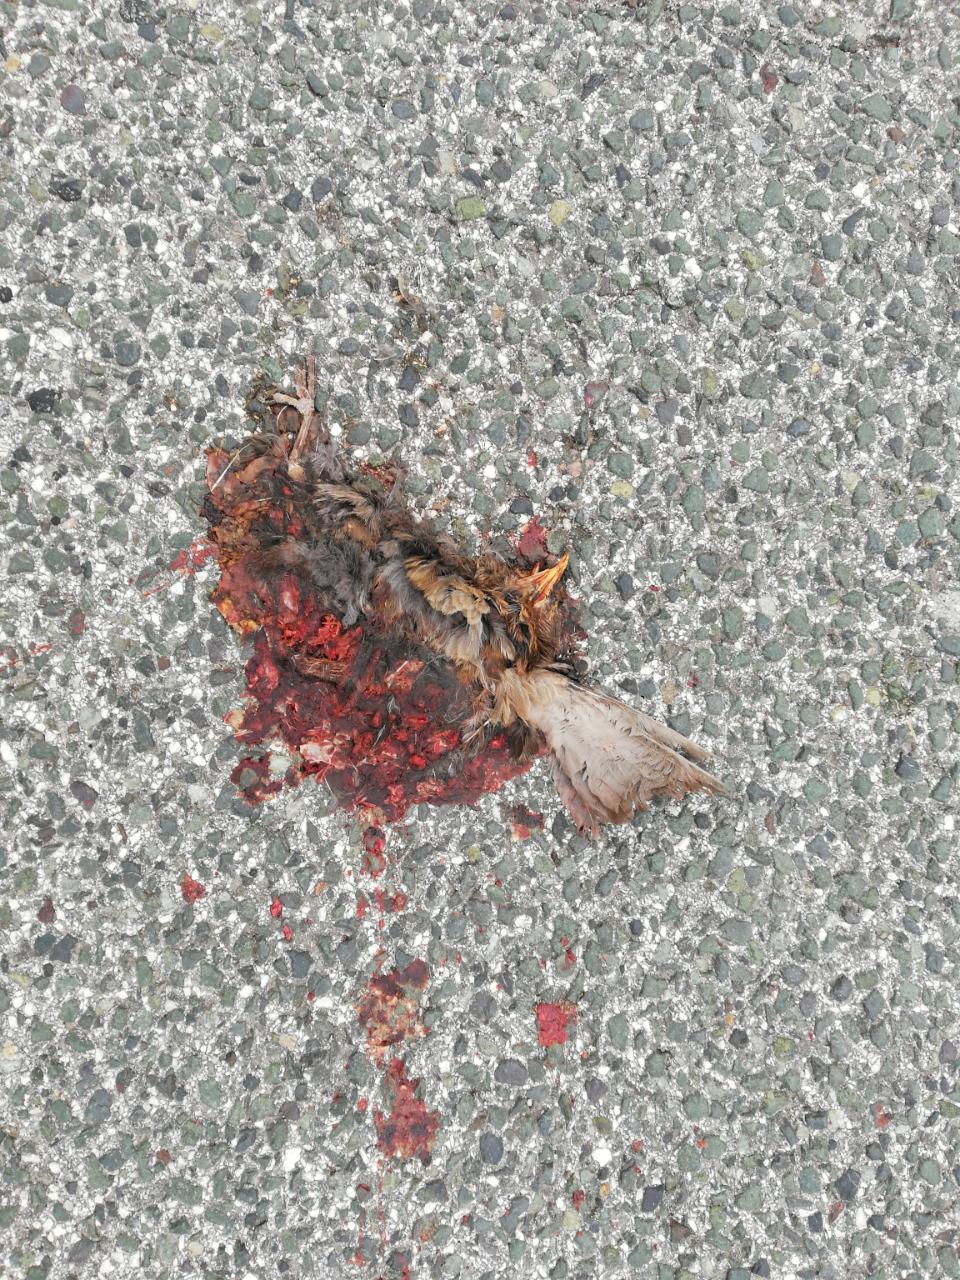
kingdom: Animalia
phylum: Chordata
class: Aves
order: Passeriformes
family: Turdidae
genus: Turdus
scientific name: Turdus merula
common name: Common blackbird
